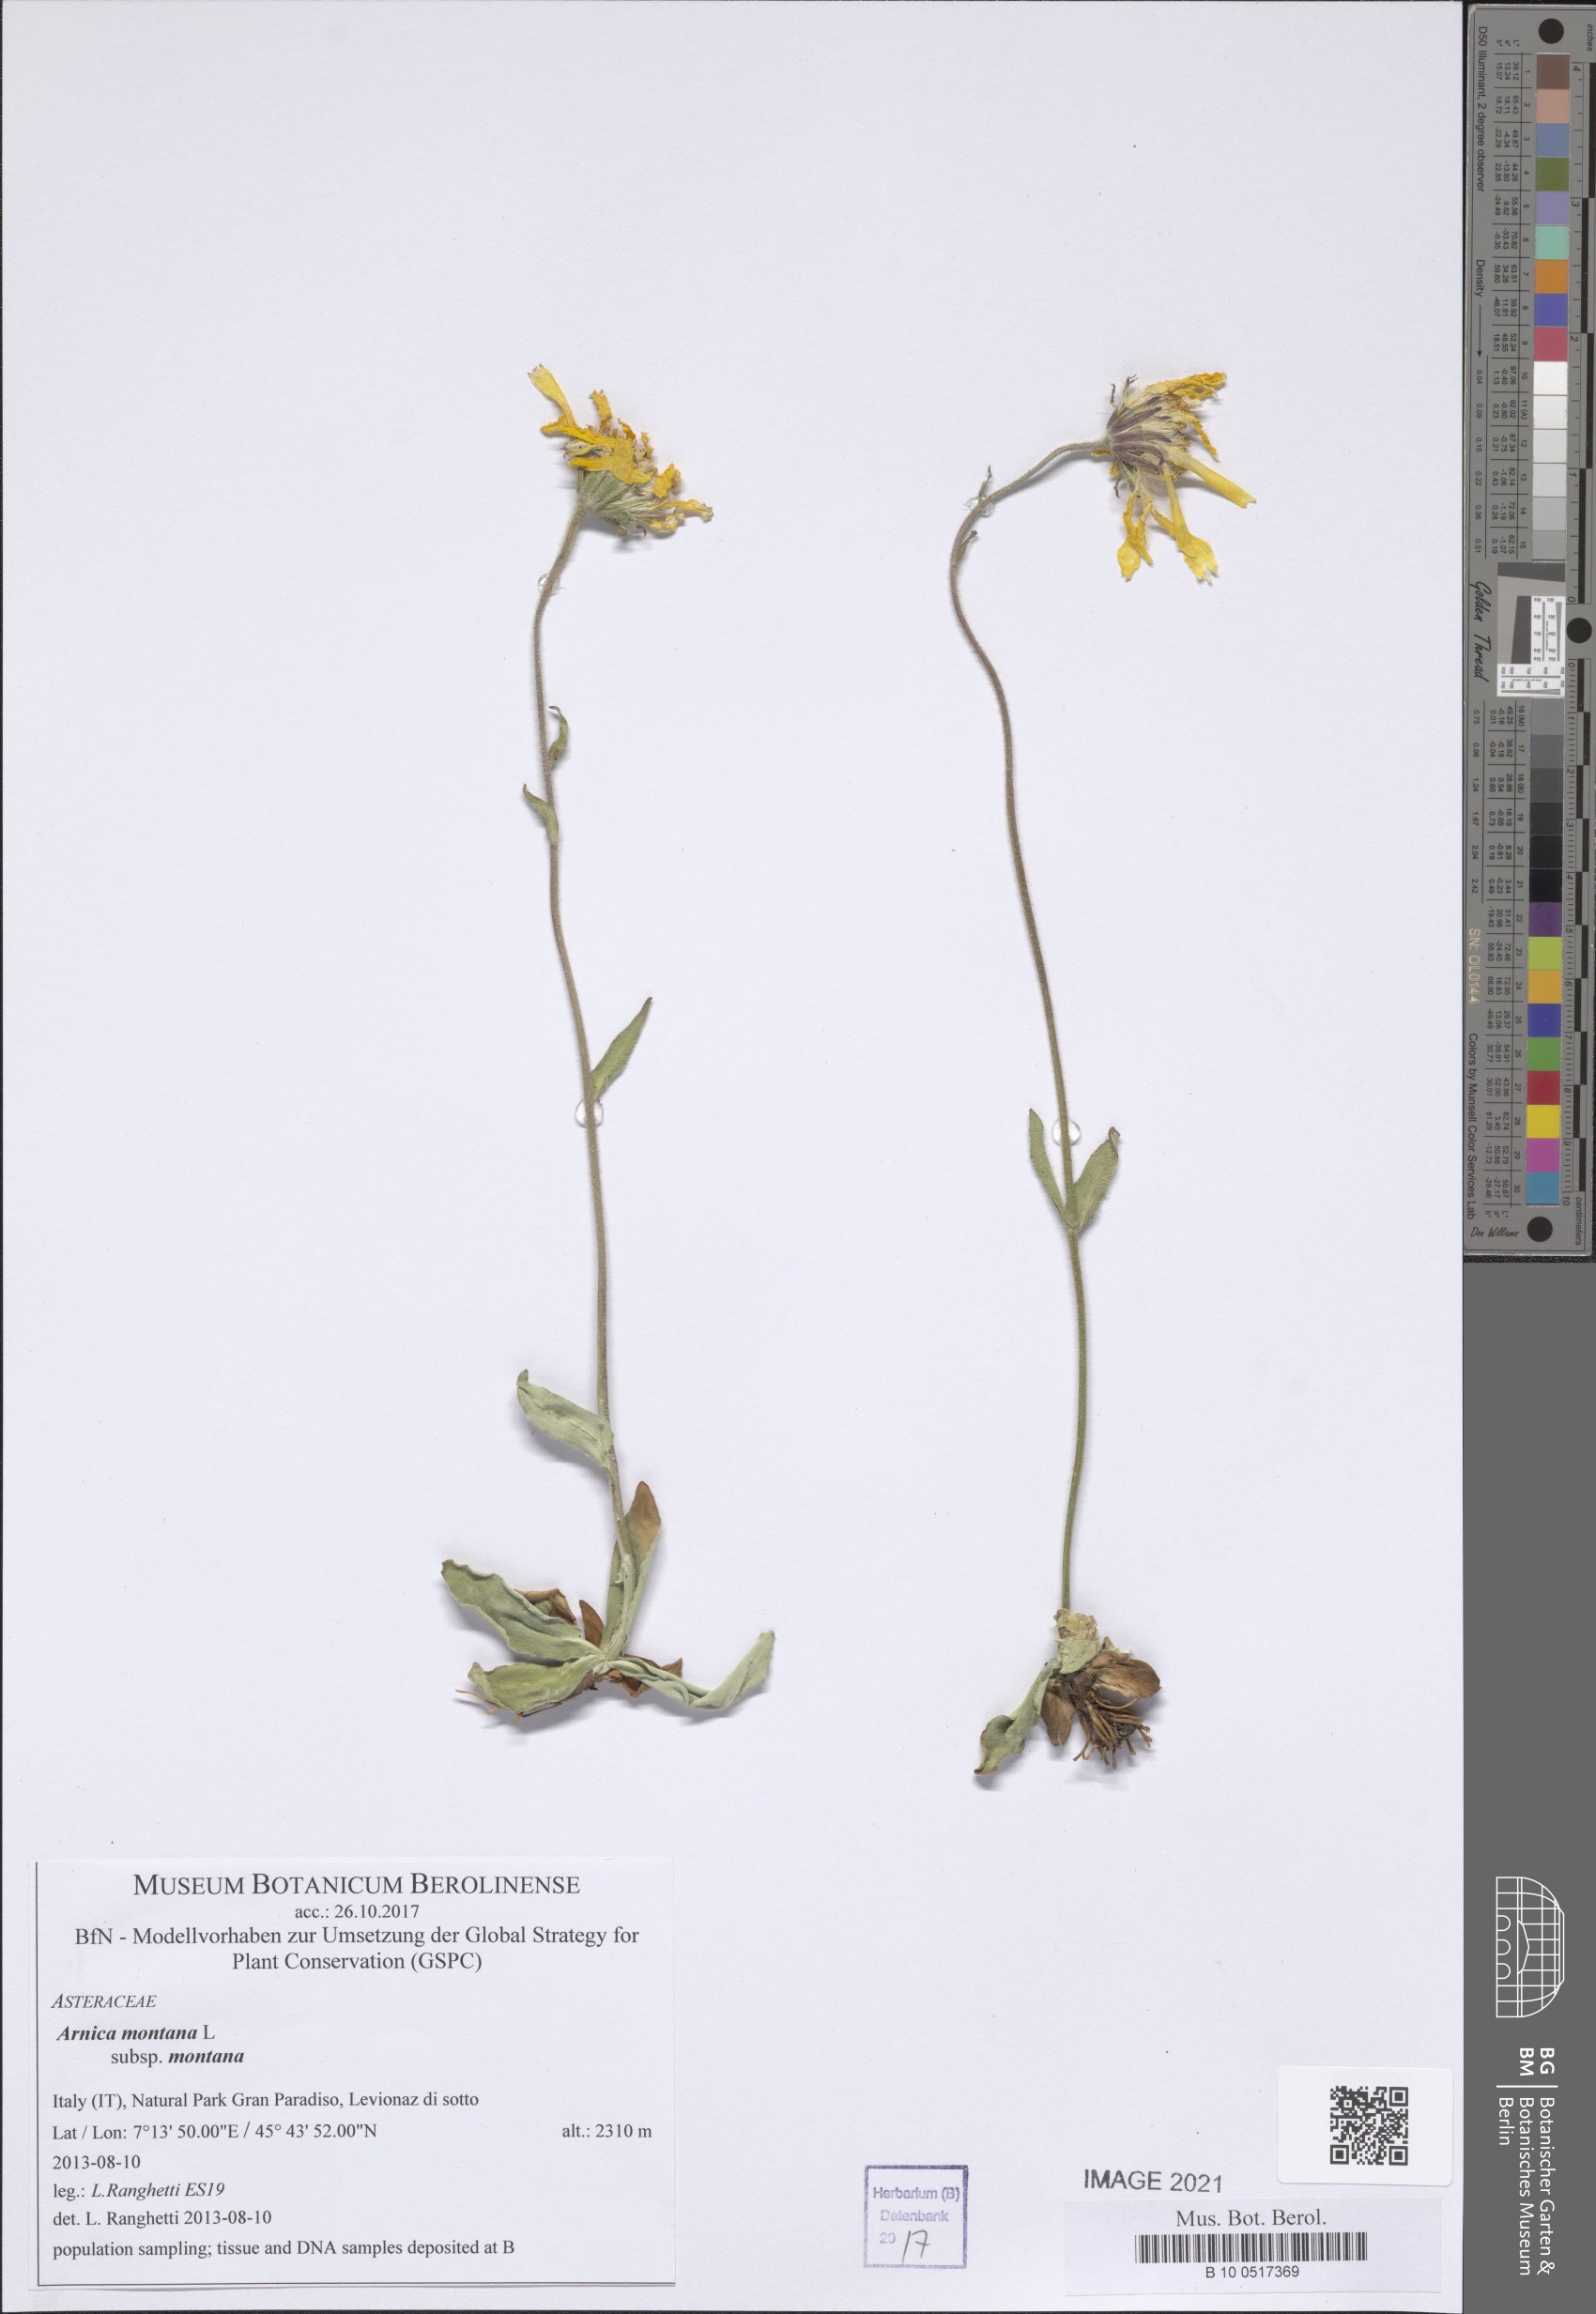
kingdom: Plantae
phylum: Tracheophyta
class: Magnoliopsida
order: Asterales
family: Asteraceae
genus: Arnica
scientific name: Arnica montana
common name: Leopard's bane
